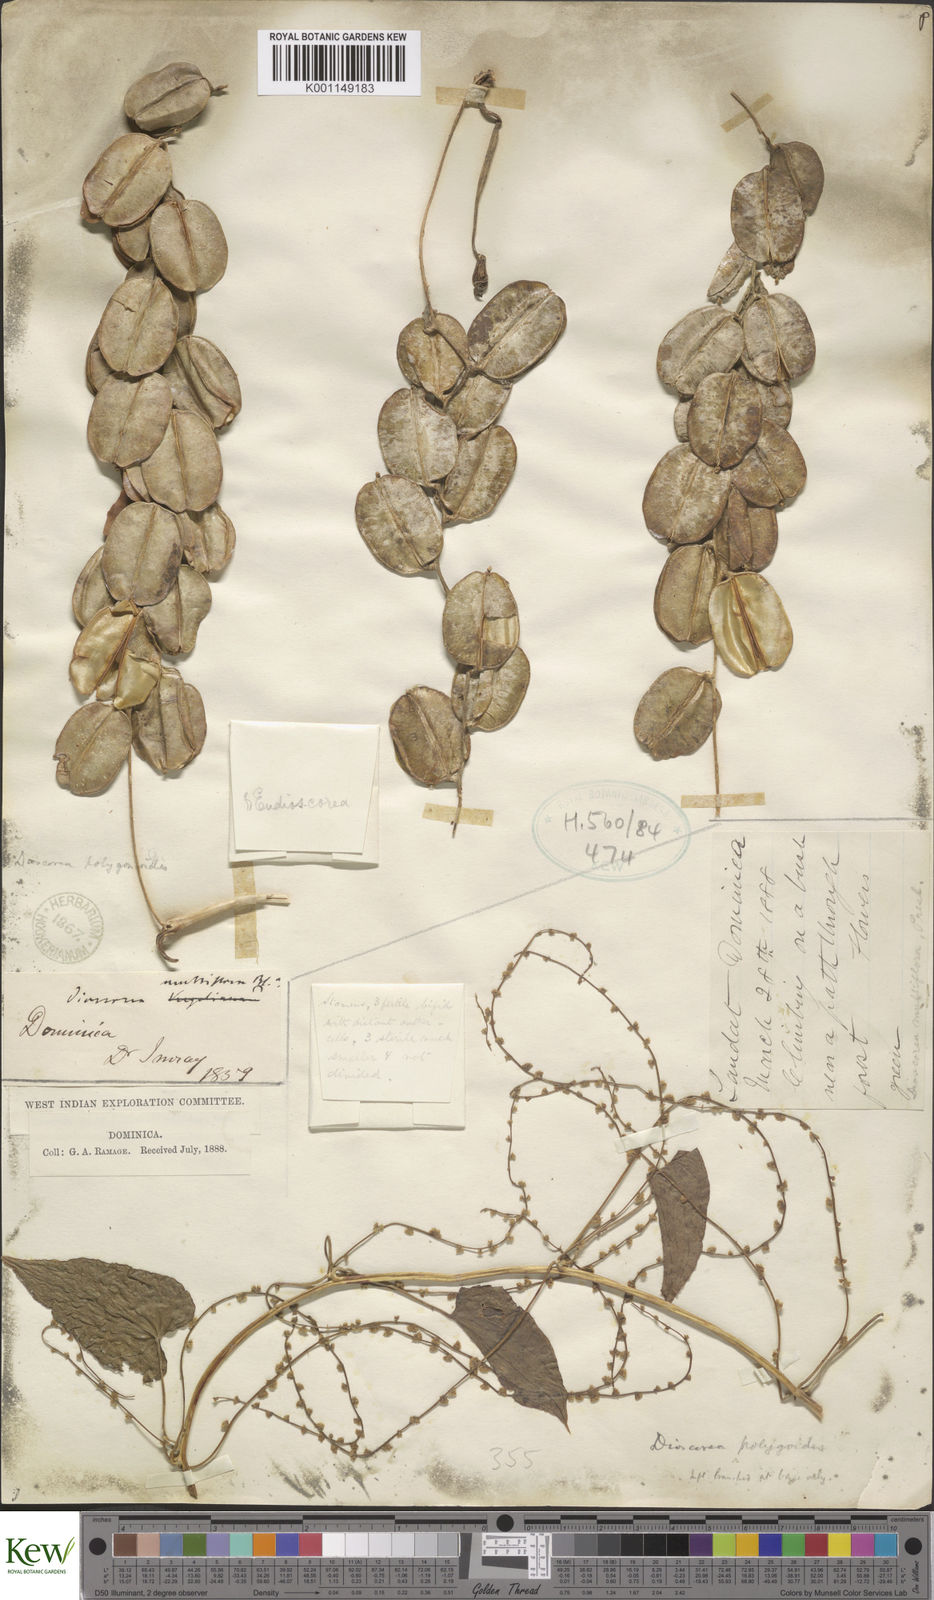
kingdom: Plantae
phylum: Tracheophyta
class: Liliopsida
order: Dioscoreales
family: Dioscoreaceae
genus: Dioscorea
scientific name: Dioscorea polygonoides
